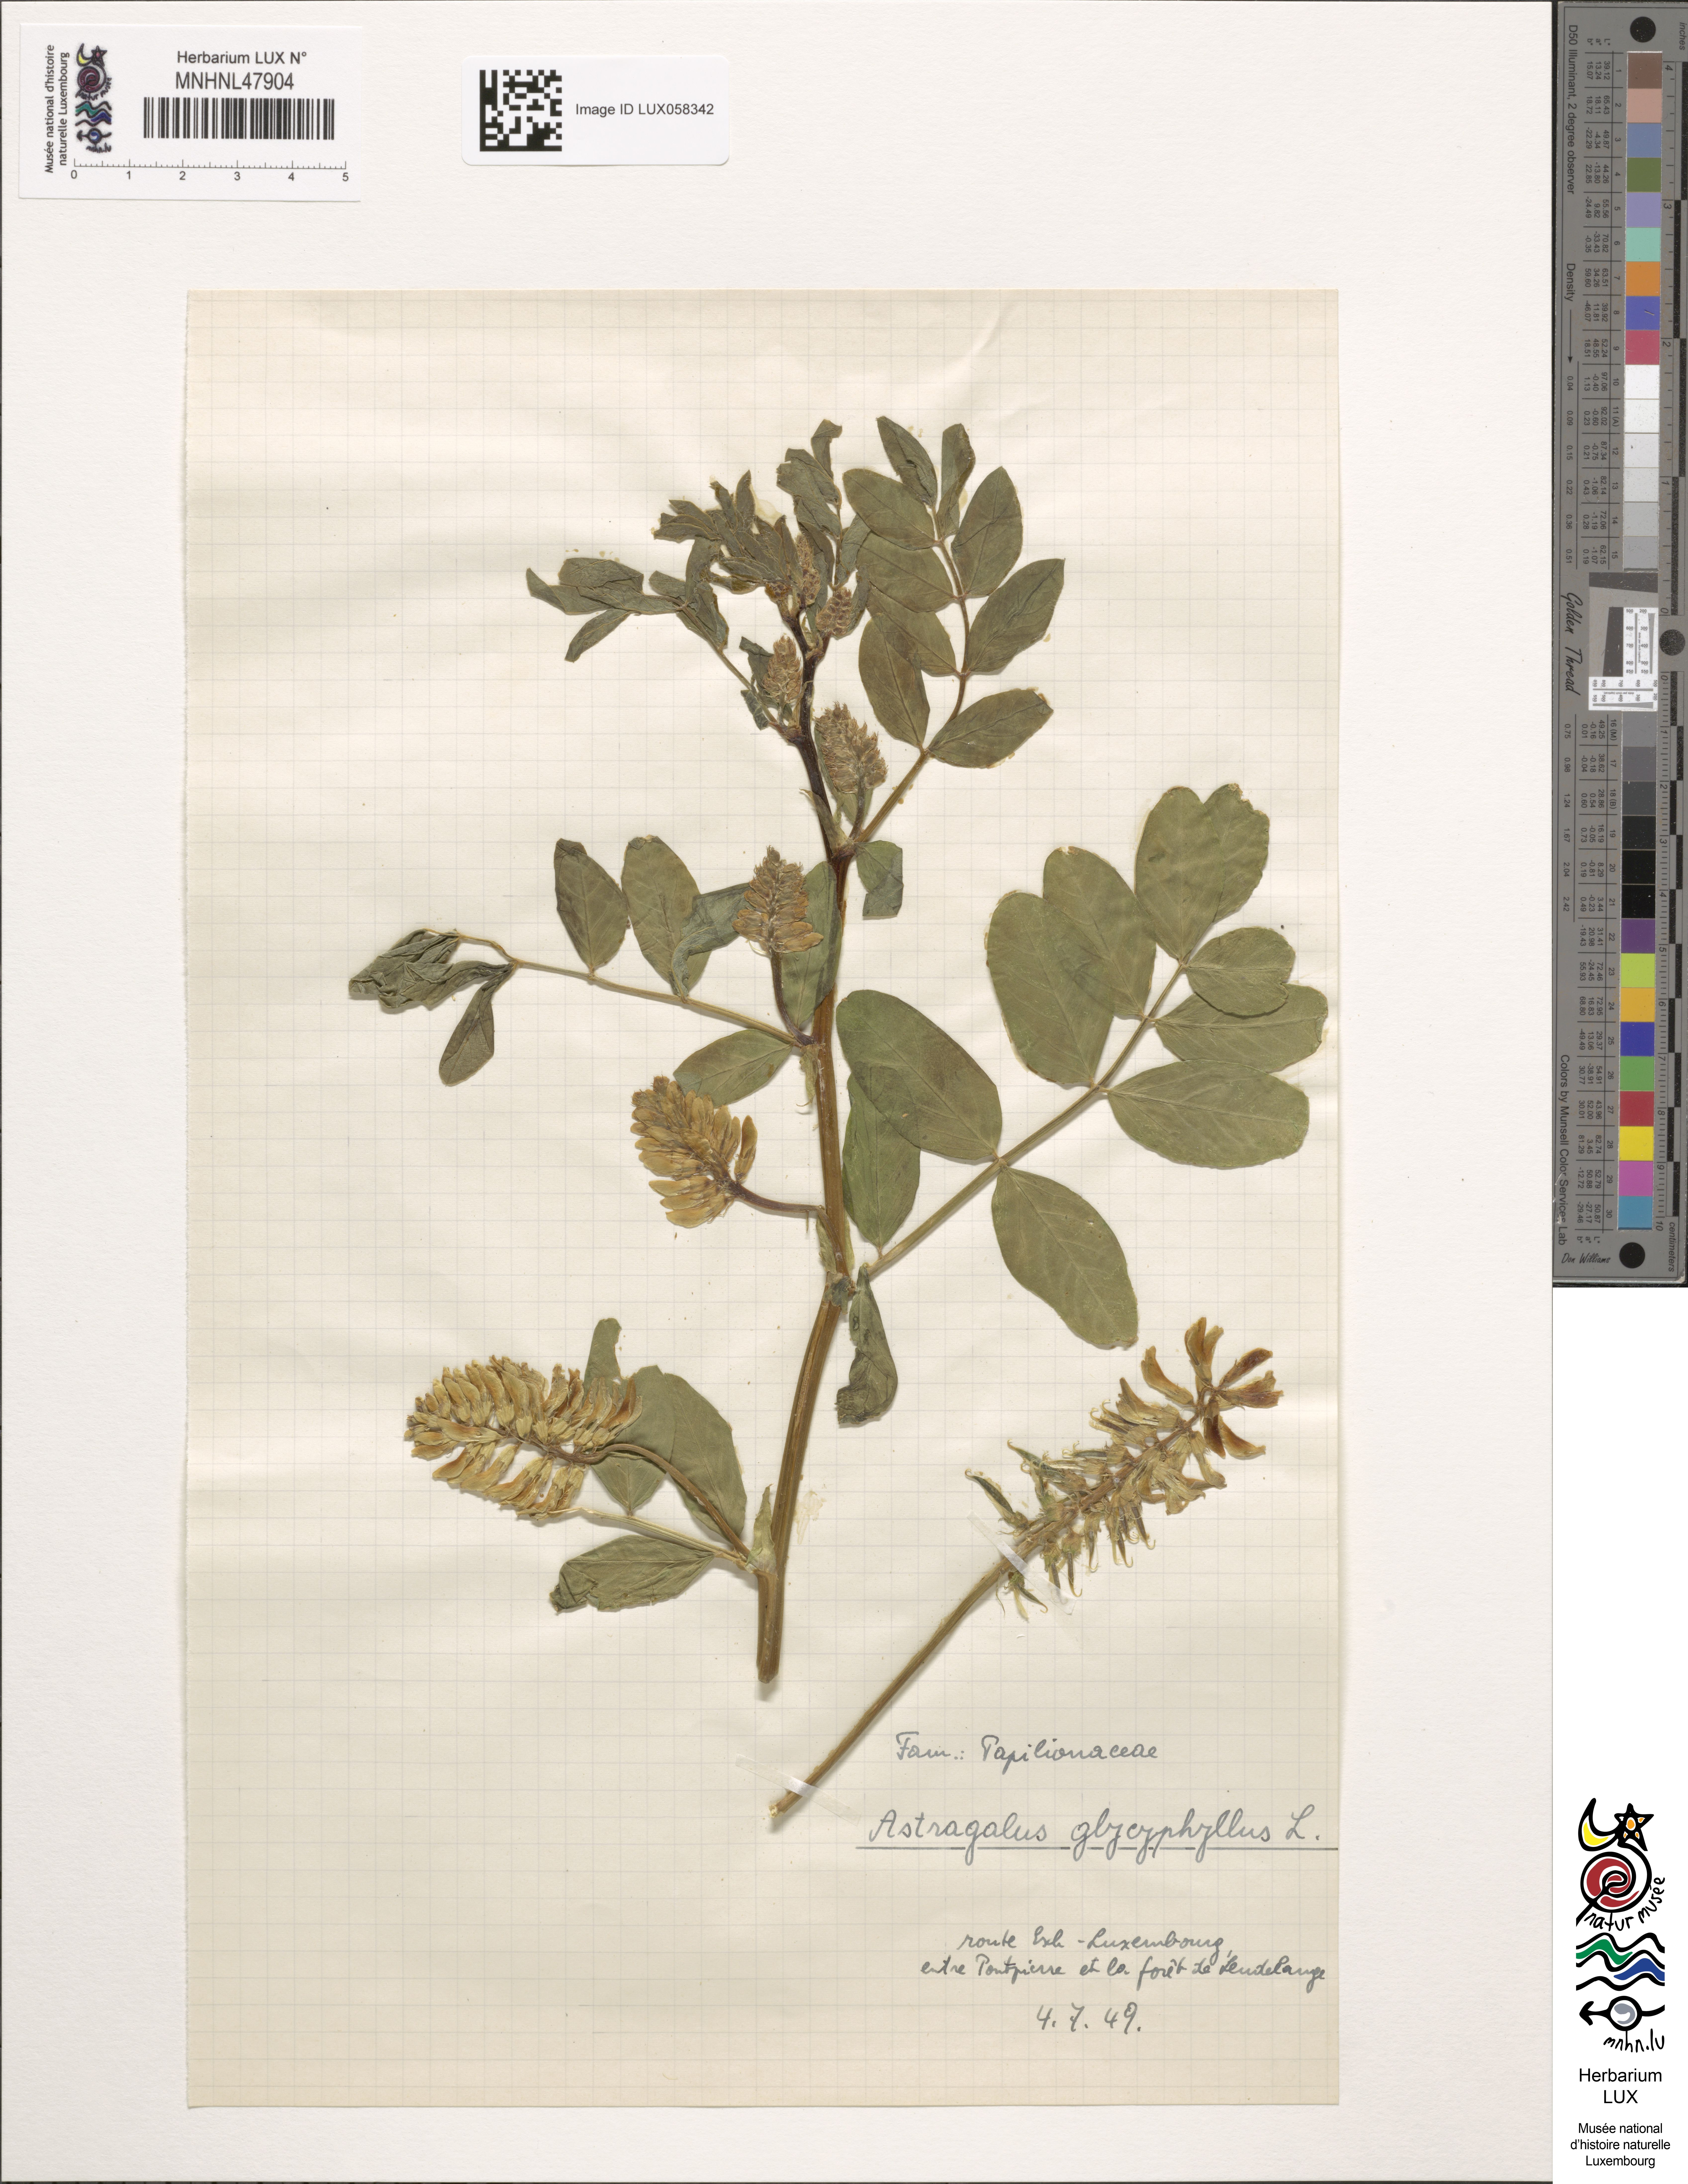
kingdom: Plantae
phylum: Tracheophyta
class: Magnoliopsida
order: Fabales
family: Fabaceae
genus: Astragalus
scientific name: Astragalus glycyphyllos
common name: Wild liquorice
